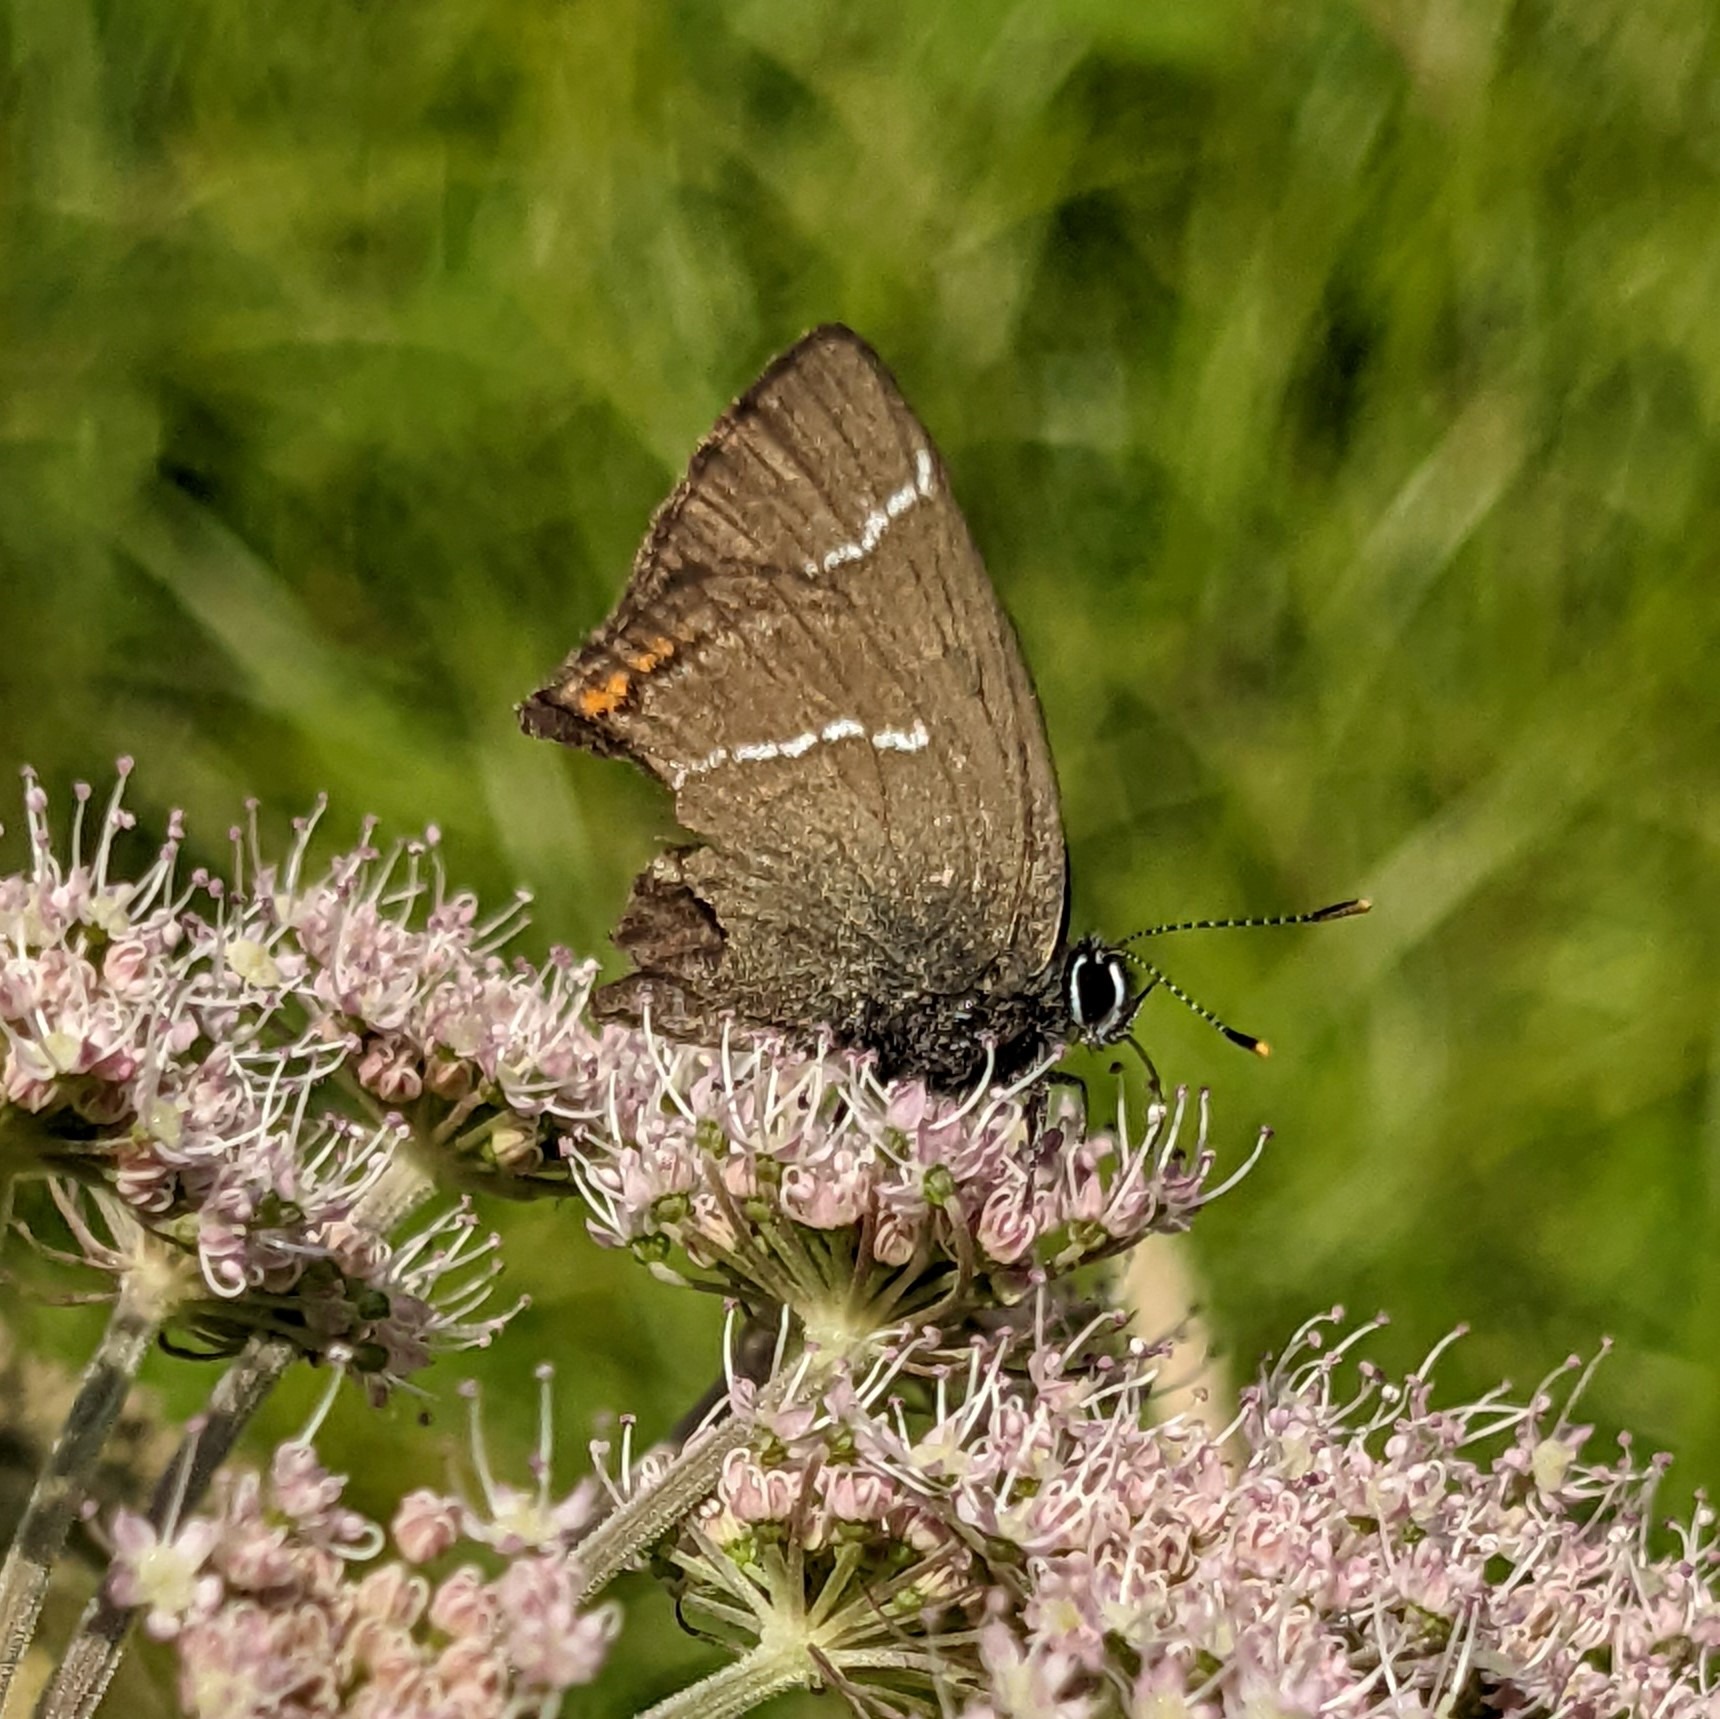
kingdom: Animalia
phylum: Arthropoda
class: Insecta
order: Lepidoptera
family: Lycaenidae
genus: Satyrium
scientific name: Satyrium w-album
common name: Det hvide W
